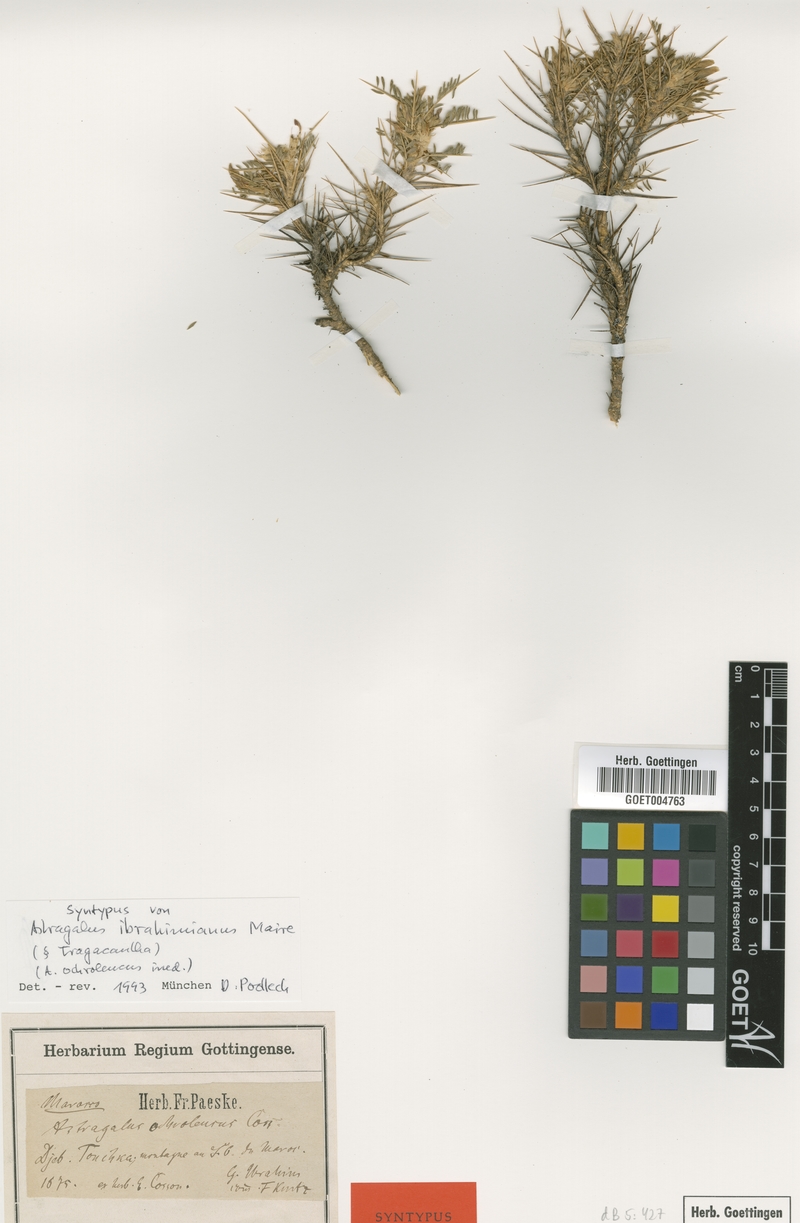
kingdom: Plantae
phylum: Tracheophyta
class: Magnoliopsida
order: Fabales
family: Fabaceae
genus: Astragalus
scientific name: Astragalus ibrahimianus
